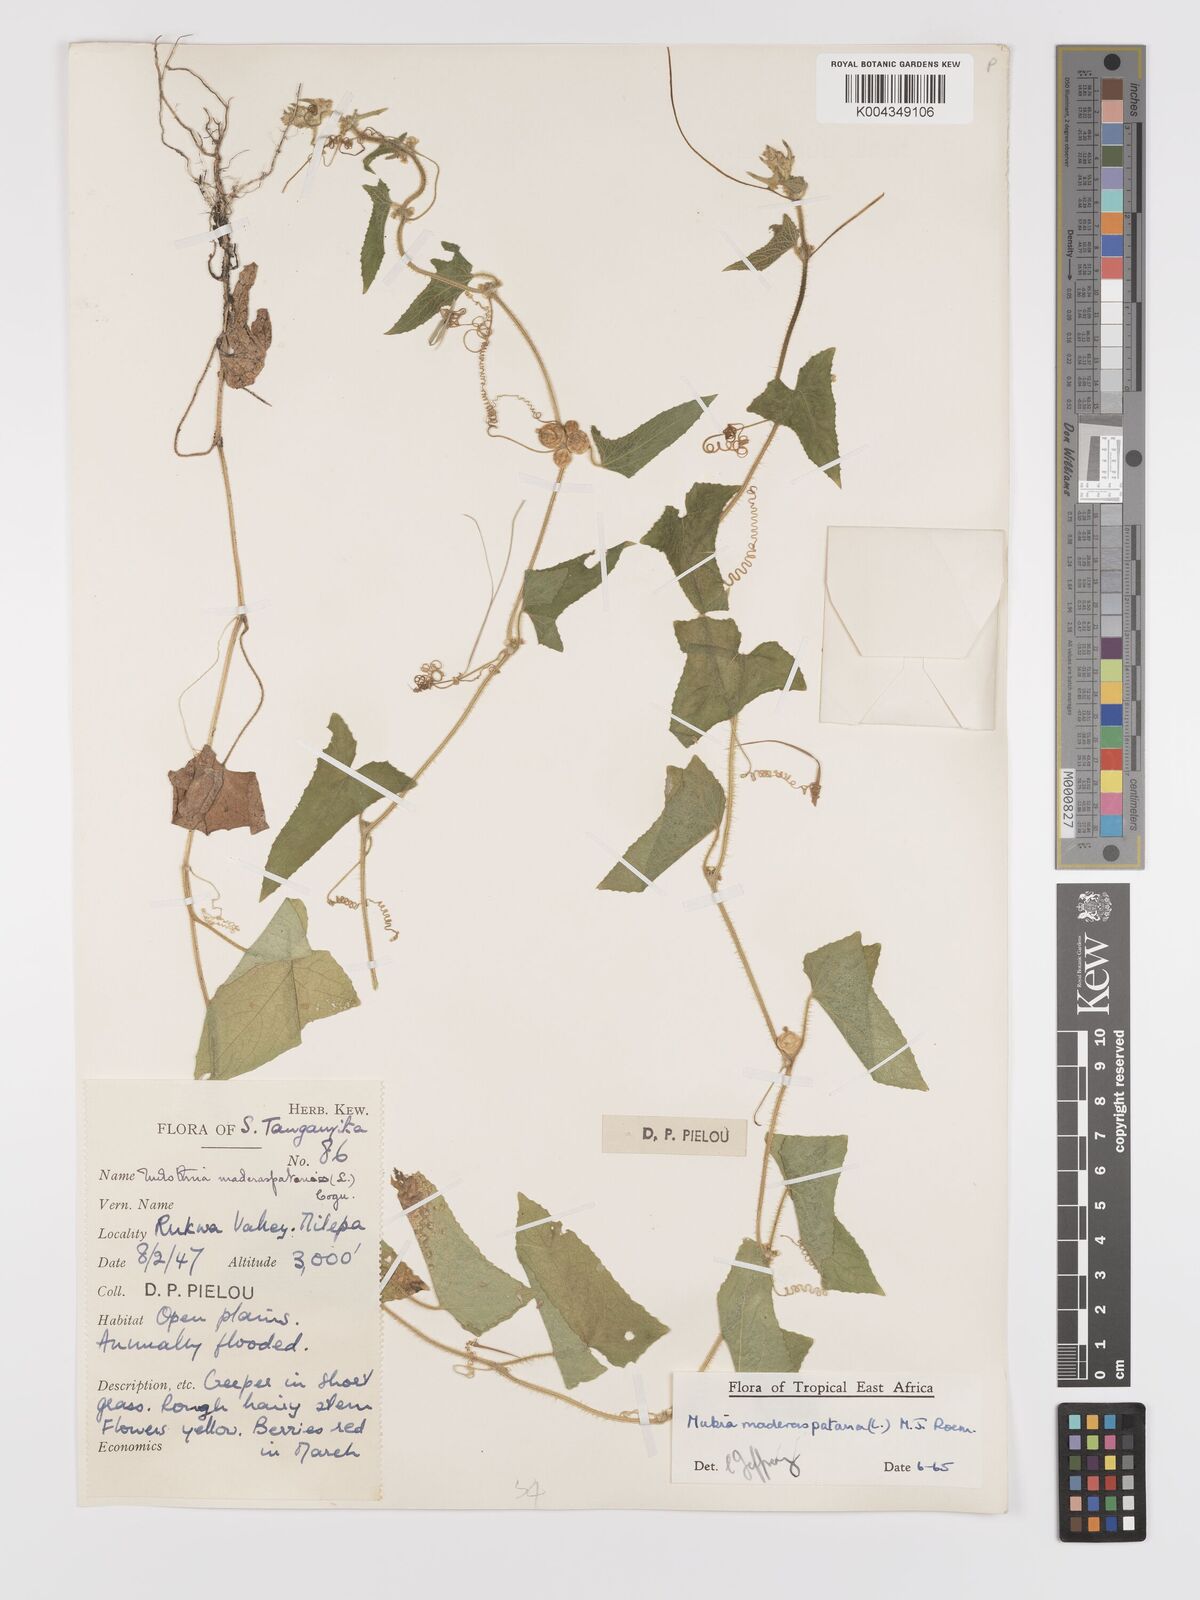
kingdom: Plantae
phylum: Tracheophyta
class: Magnoliopsida
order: Cucurbitales
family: Cucurbitaceae
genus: Cucumis
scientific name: Cucumis maderaspatanus
